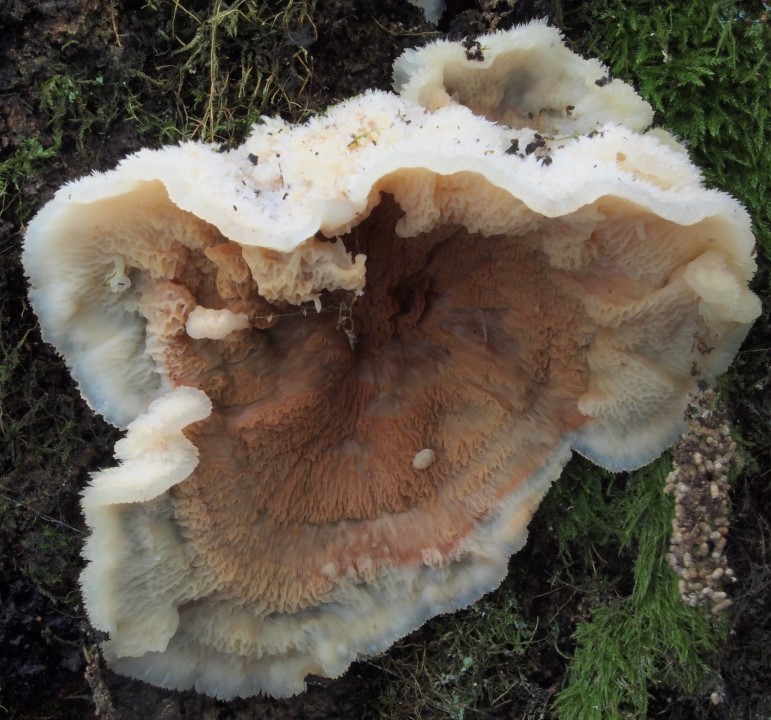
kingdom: Fungi
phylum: Basidiomycota
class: Agaricomycetes
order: Polyporales
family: Meruliaceae
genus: Phlebia
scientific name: Phlebia tremellosa
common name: bævrende åresvamp
